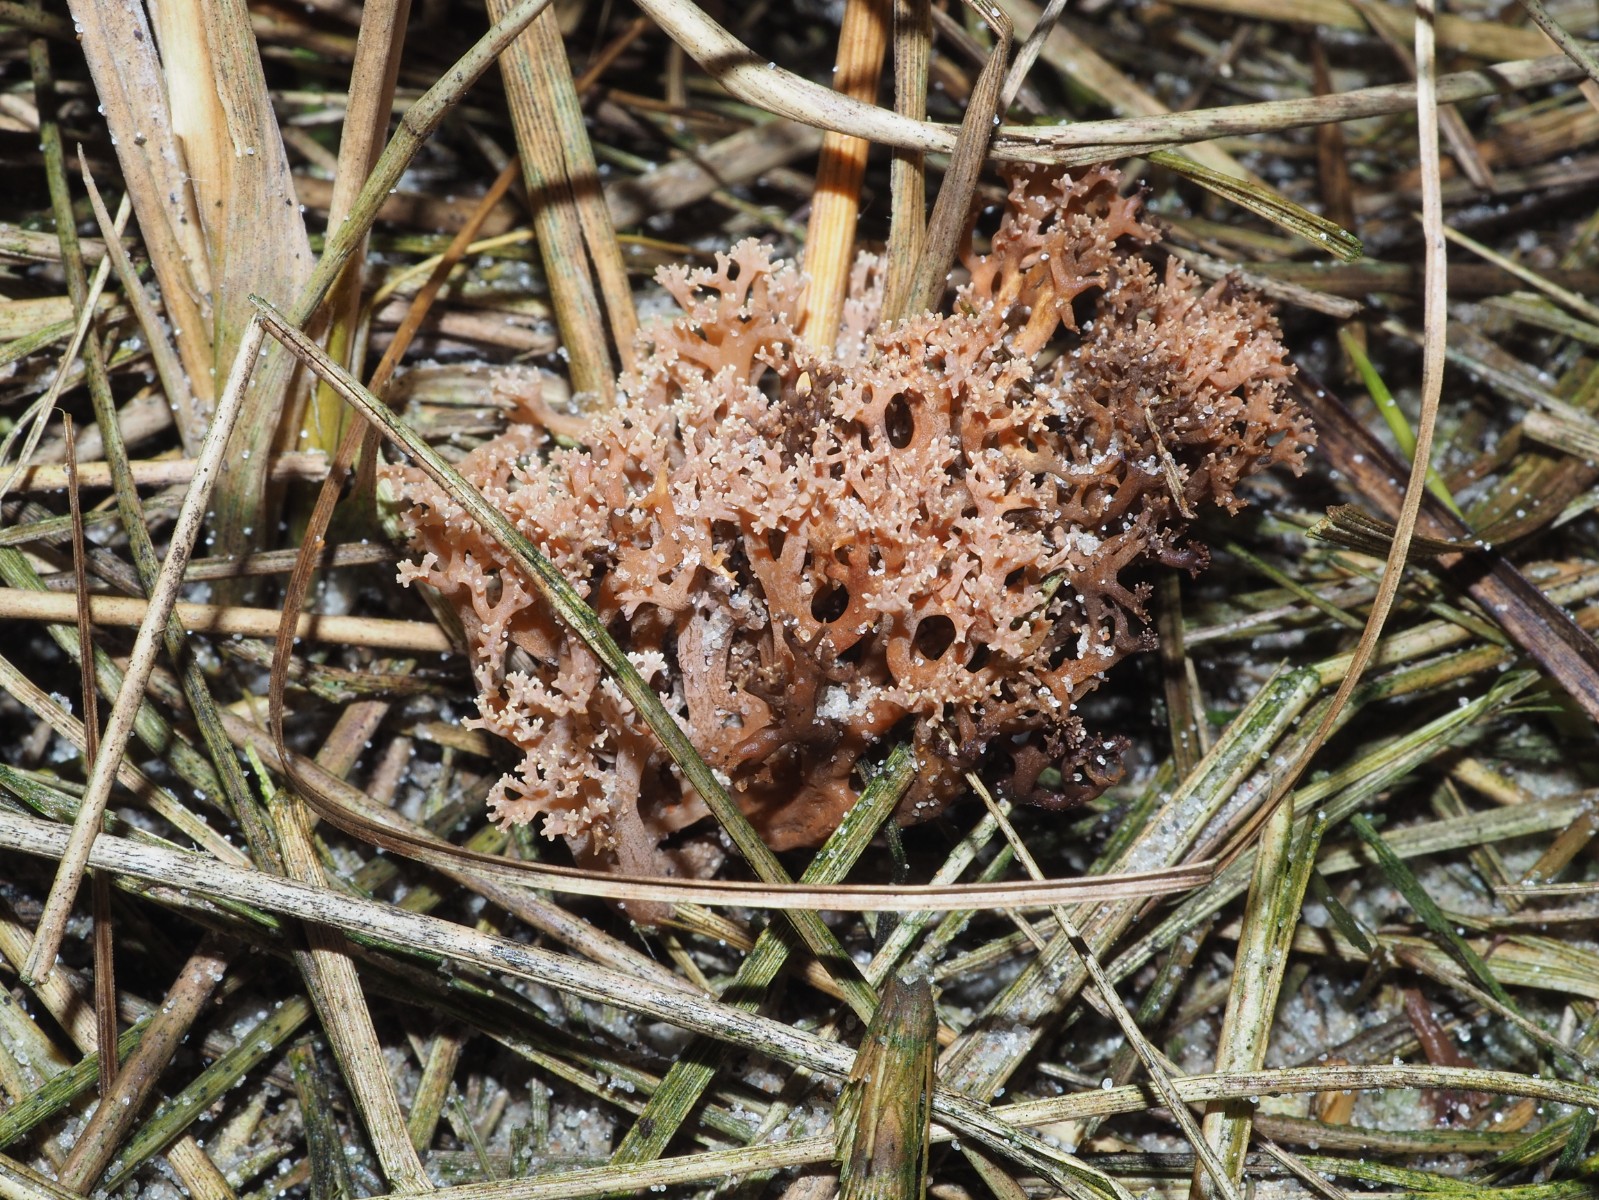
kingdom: Fungi
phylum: Basidiomycota
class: Agaricomycetes
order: Gomphales
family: Gomphaceae
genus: Ramaria
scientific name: Ramaria ammophila
